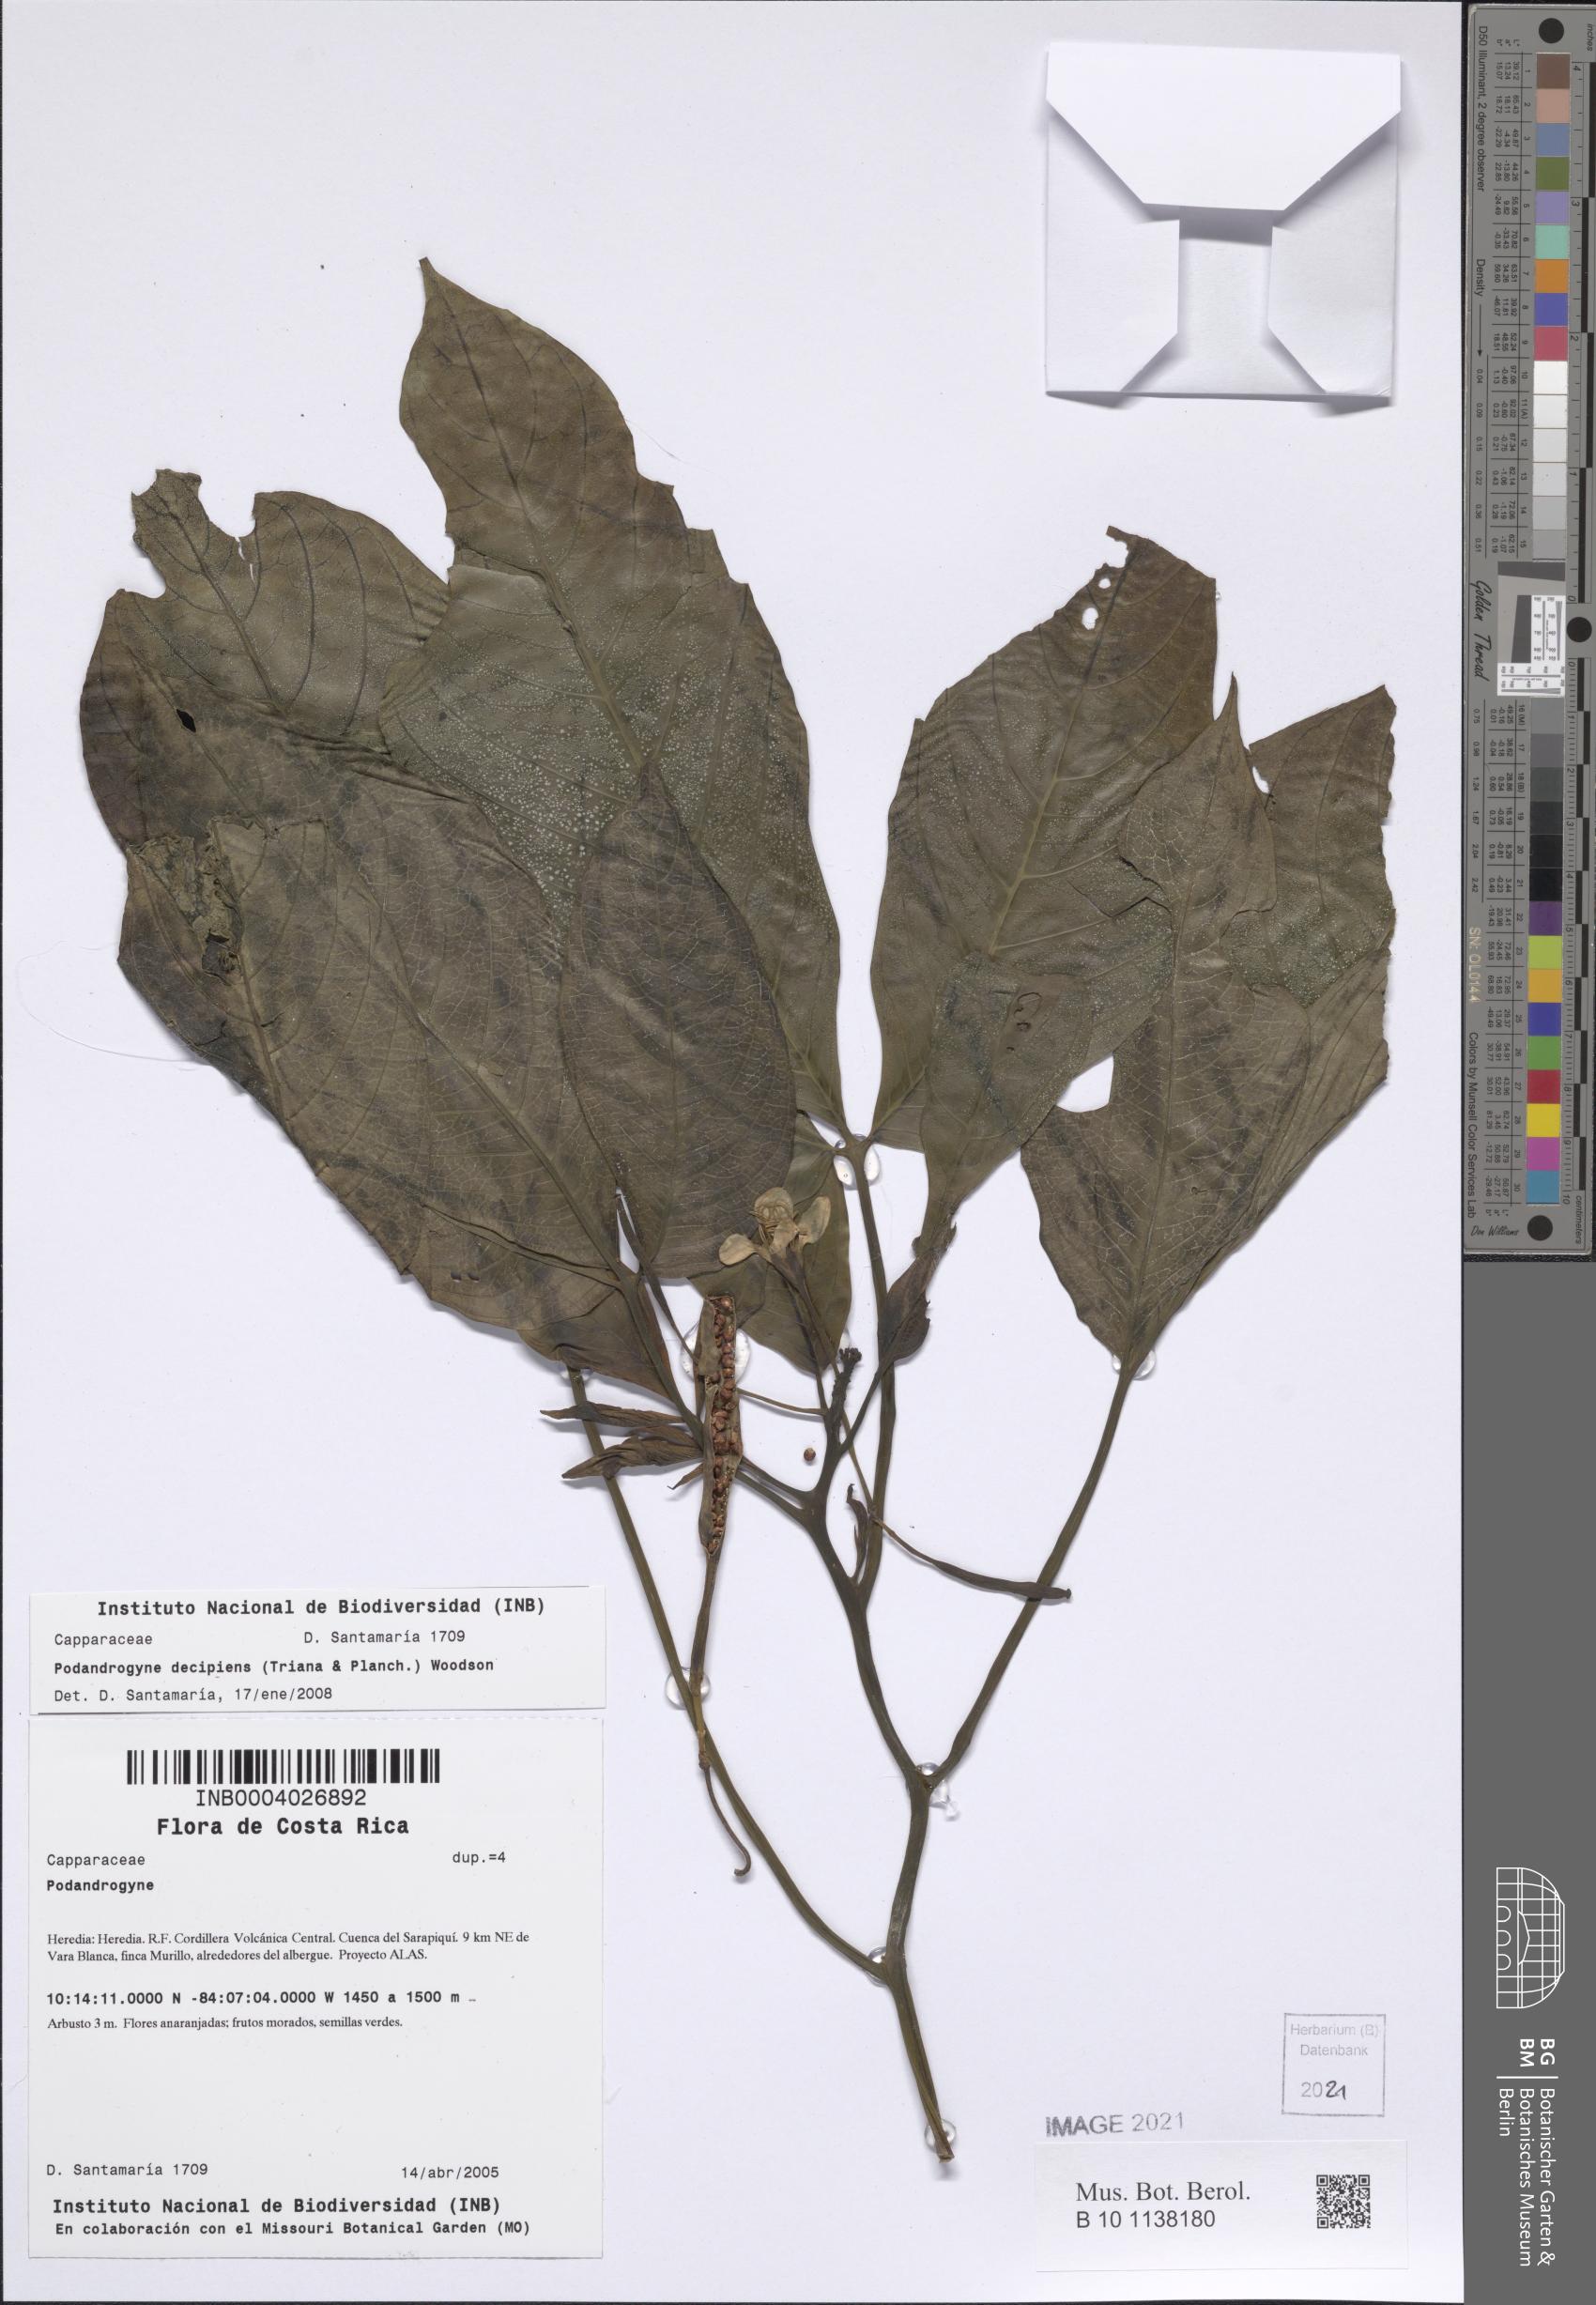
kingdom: Plantae
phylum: Tracheophyta
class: Magnoliopsida
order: Brassicales
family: Cleomaceae
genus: Podandrogyne
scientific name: Podandrogyne decipiens
